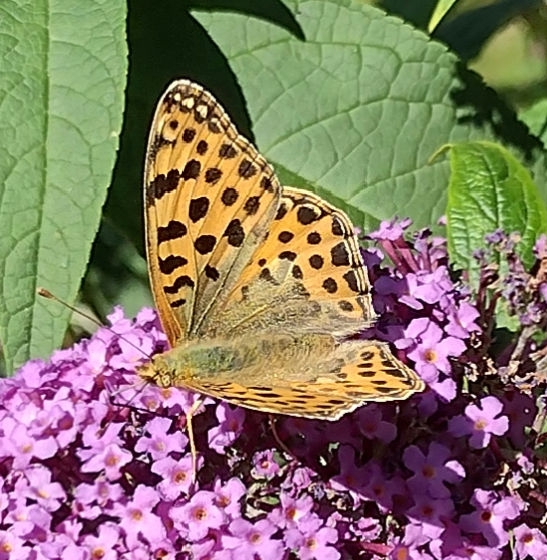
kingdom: Animalia
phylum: Arthropoda
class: Insecta
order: Lepidoptera
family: Nymphalidae
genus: Issoria
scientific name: Issoria lathonia
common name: Storplettet perlemorsommerfugl
